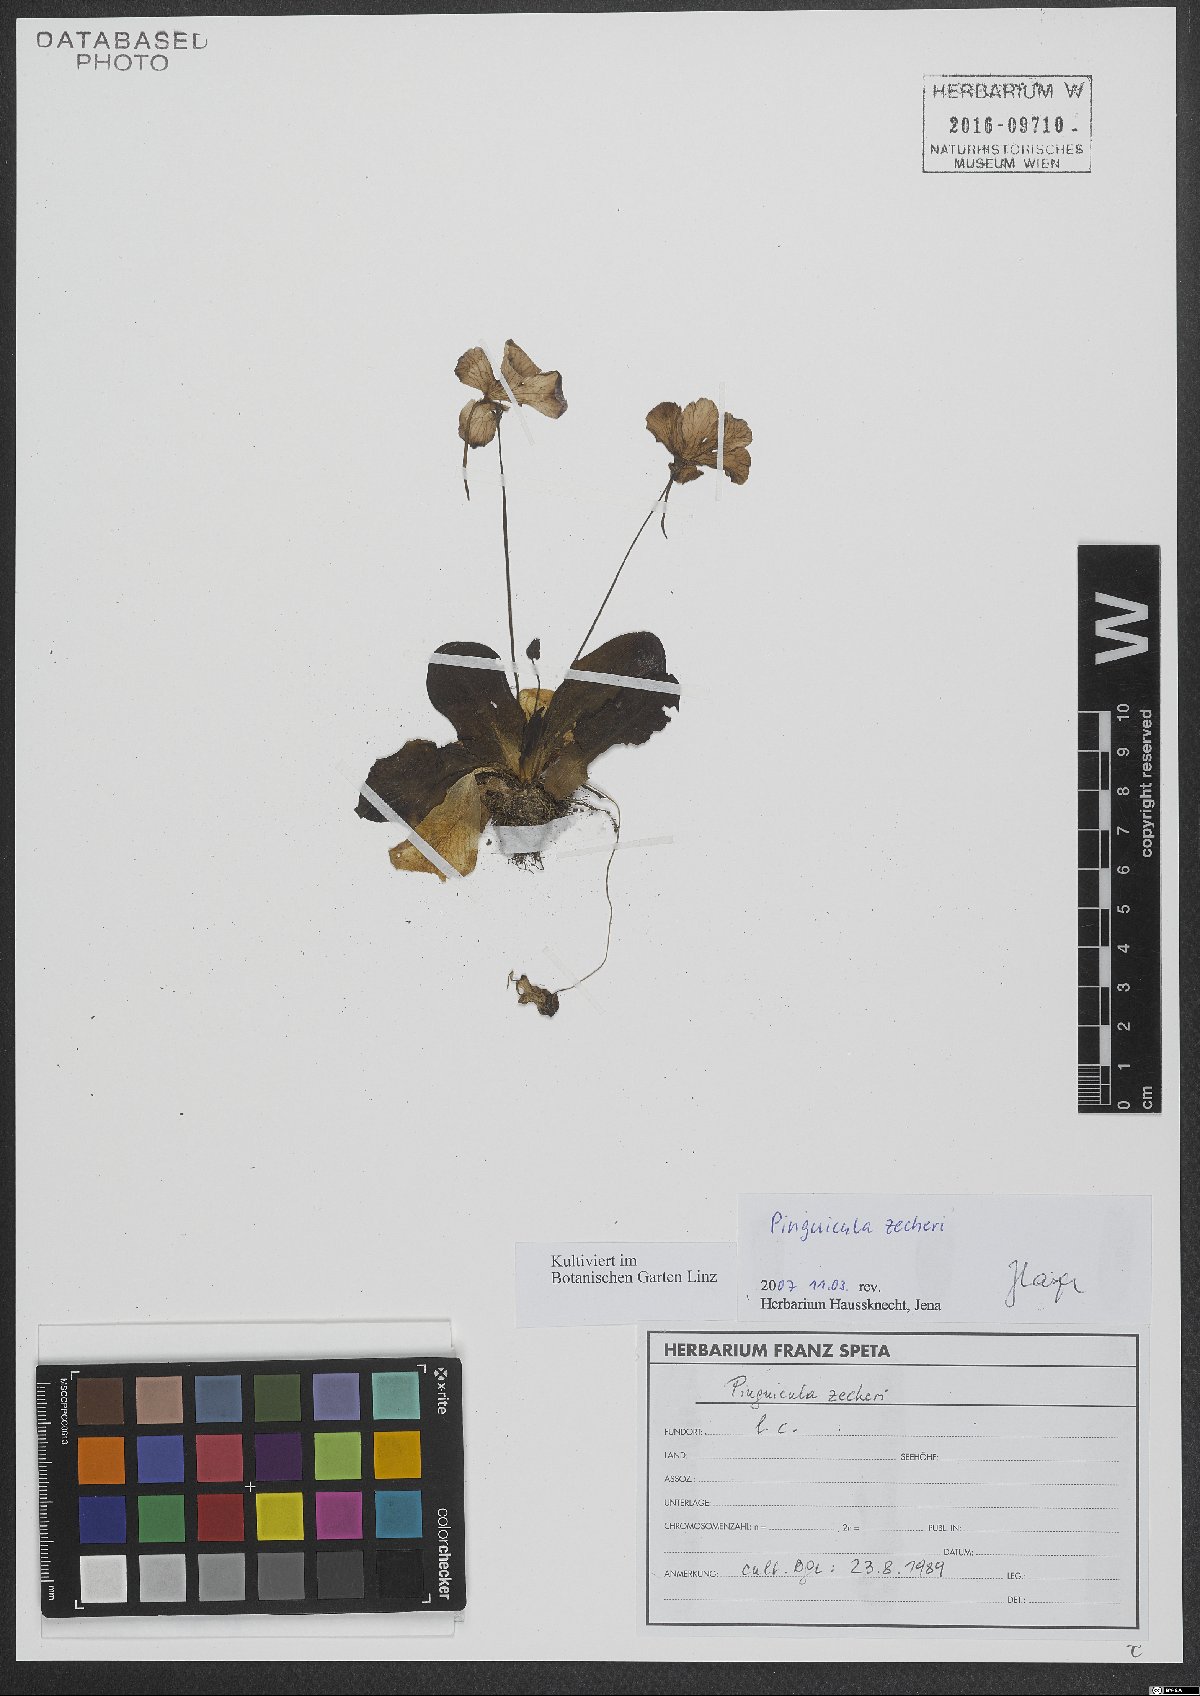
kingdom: Plantae
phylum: Tracheophyta
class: Magnoliopsida
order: Lamiales
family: Lentibulariaceae
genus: Pinguicula
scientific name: Pinguicula zecheri
